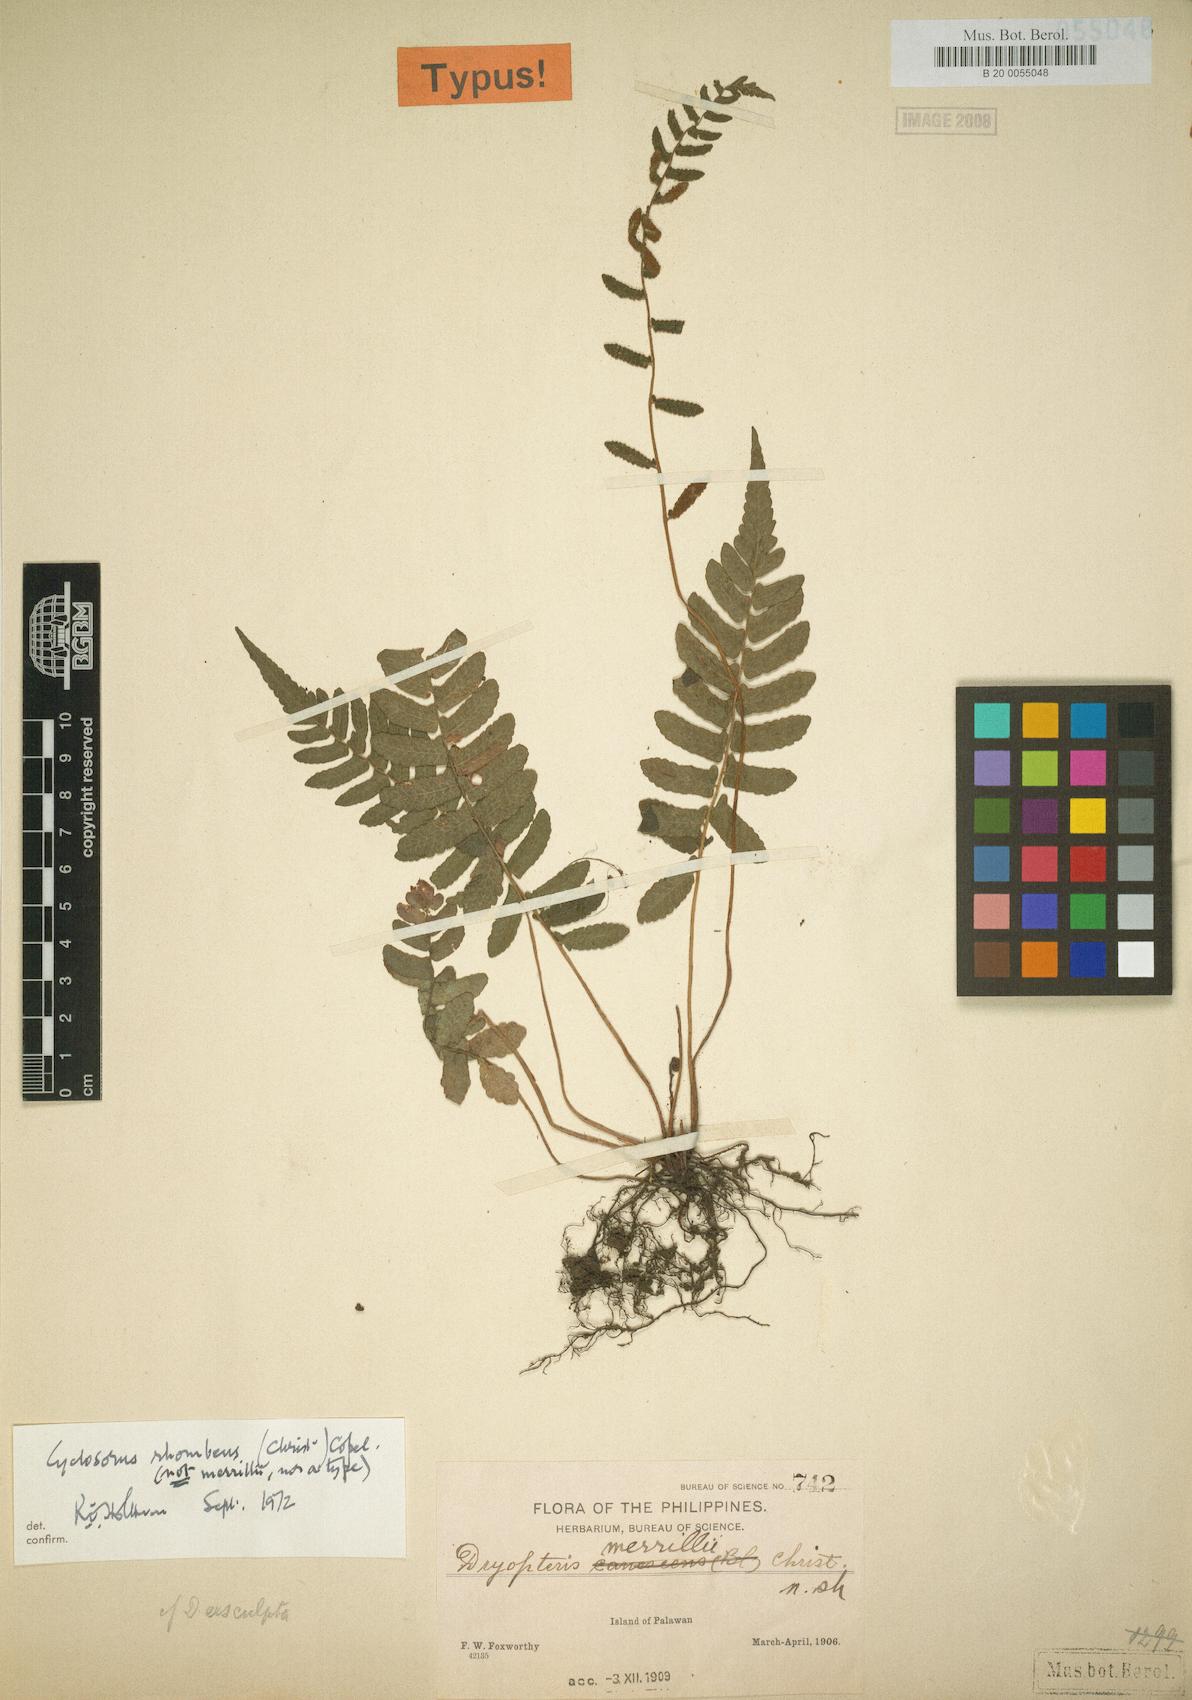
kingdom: Plantae
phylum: Tracheophyta
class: Polypodiopsida
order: Polypodiales
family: Thelypteridaceae
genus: Pronephrium
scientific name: Pronephrium merrillii
